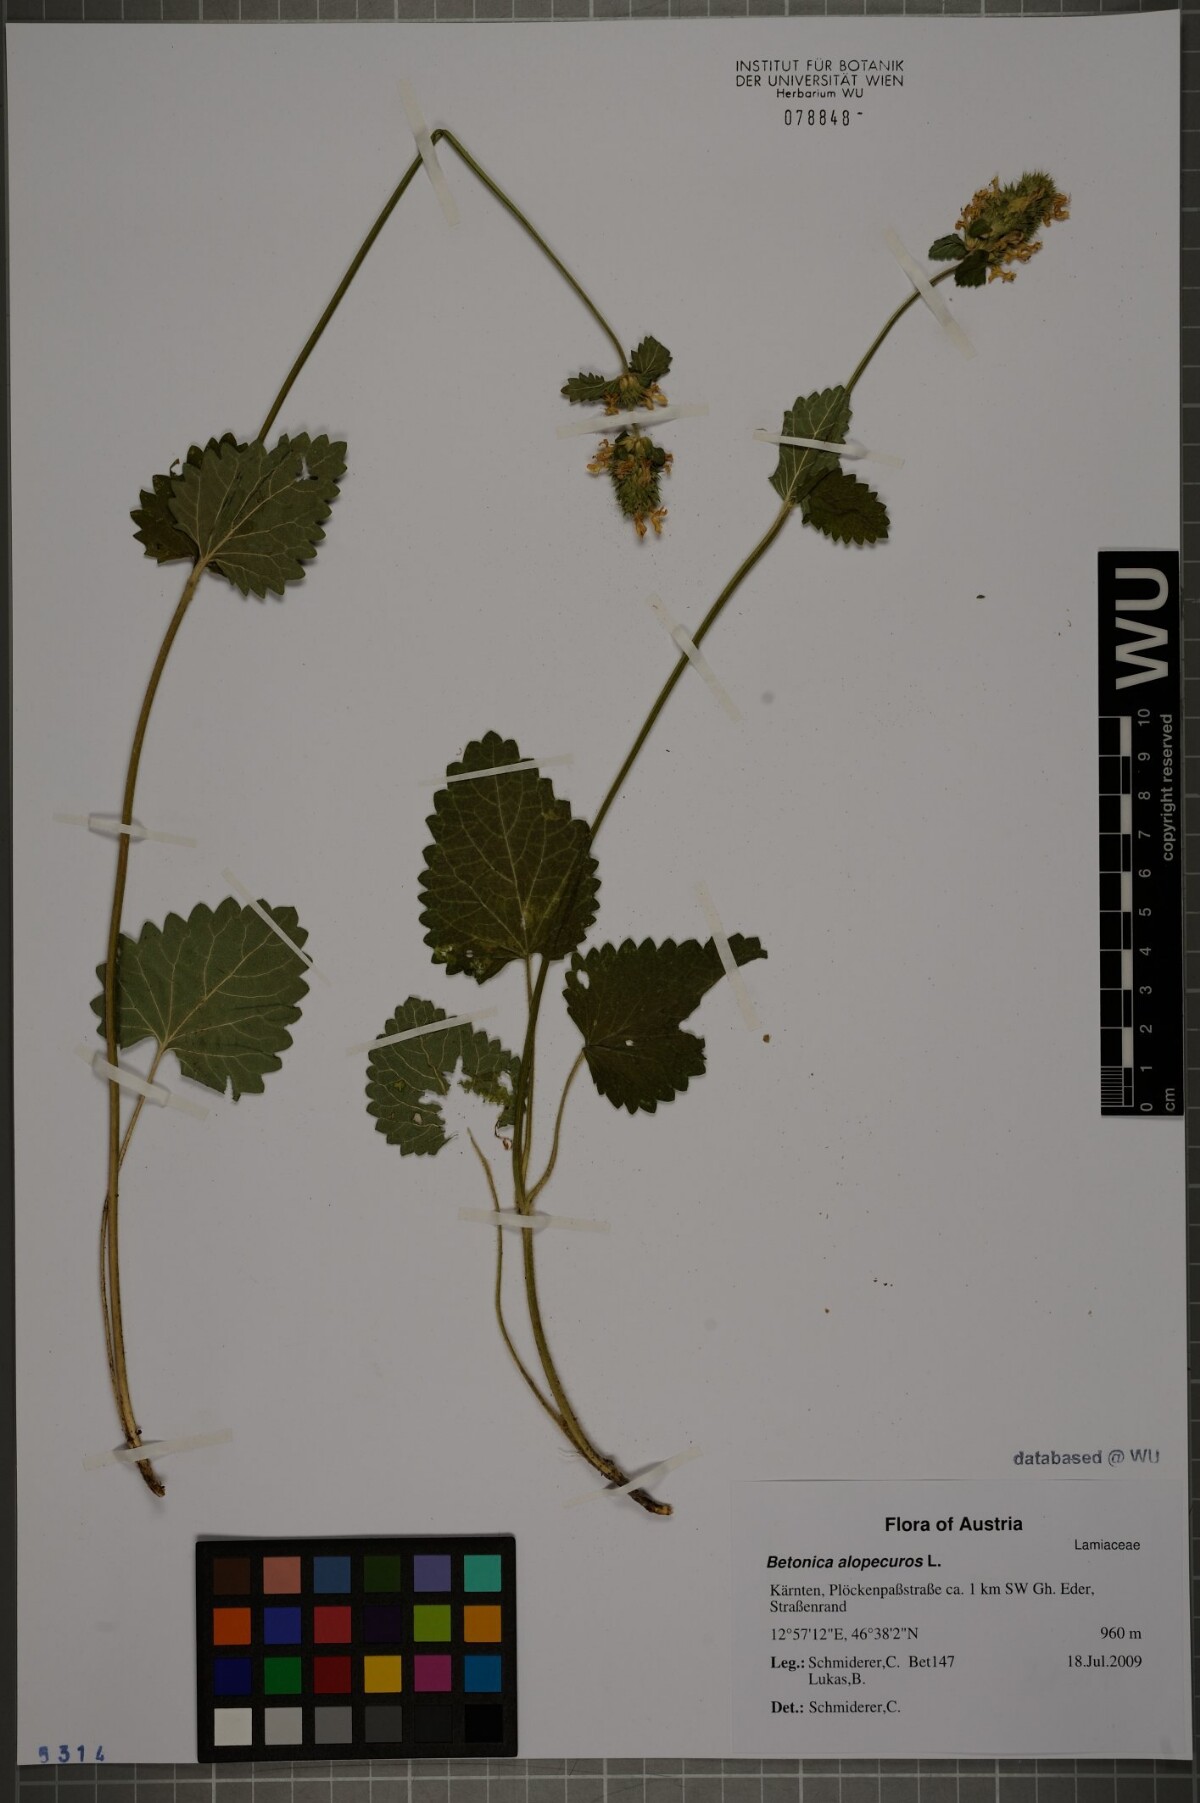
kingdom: Plantae
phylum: Tracheophyta
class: Magnoliopsida
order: Lamiales
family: Lamiaceae
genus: Betonica
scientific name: Betonica alopecuros
